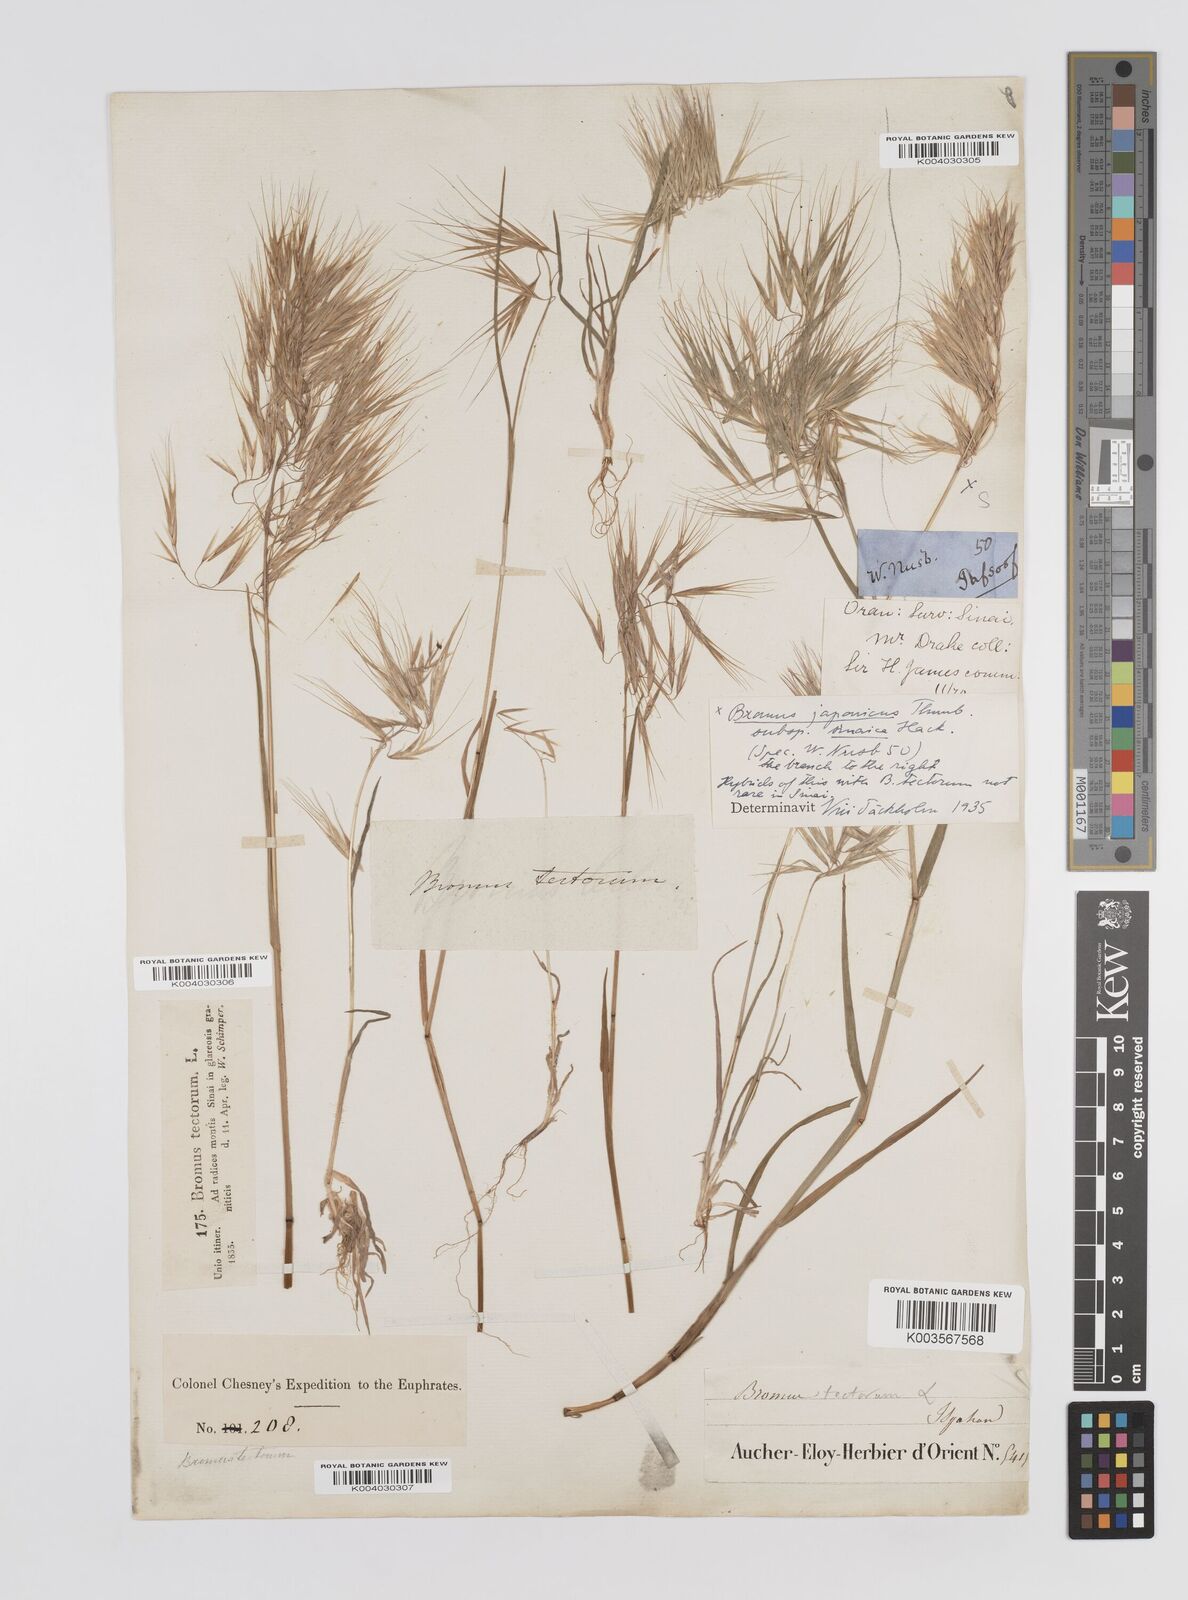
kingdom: Plantae
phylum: Tracheophyta
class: Liliopsida
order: Poales
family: Poaceae
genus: Bromus
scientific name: Bromus pectinatus
